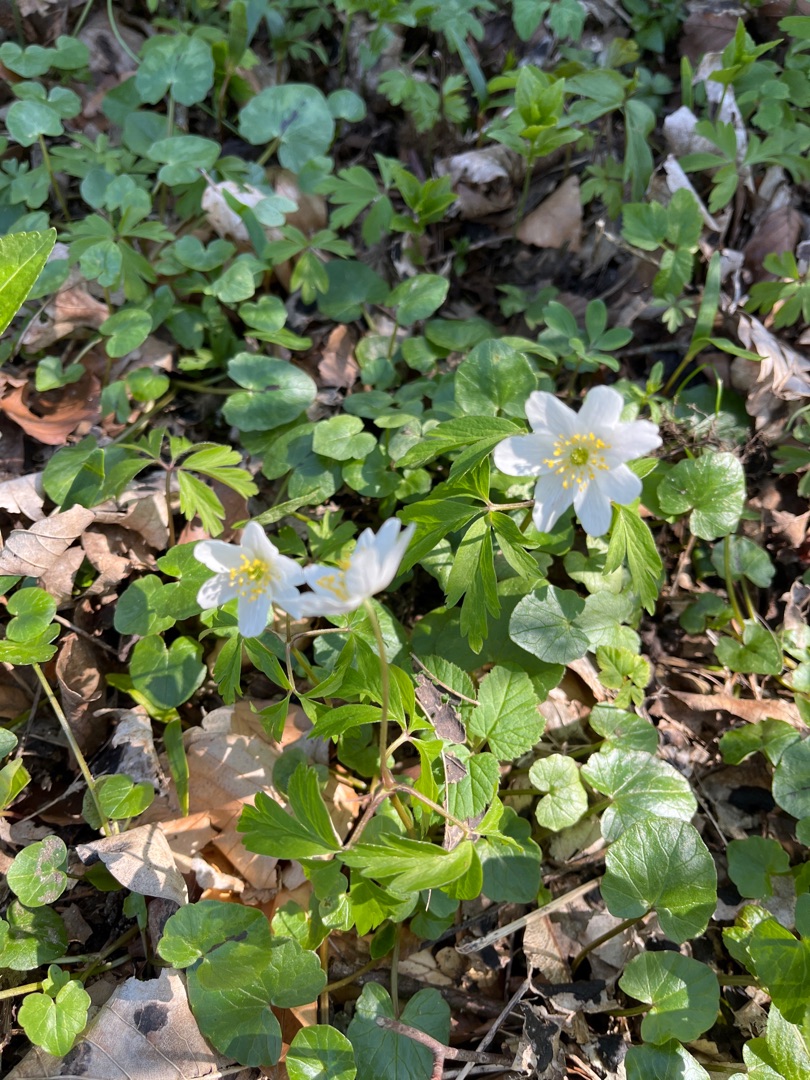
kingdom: Plantae
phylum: Tracheophyta
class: Magnoliopsida
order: Ranunculales
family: Ranunculaceae
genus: Anemone
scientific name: Anemone nemorosa
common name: Hvid anemone
